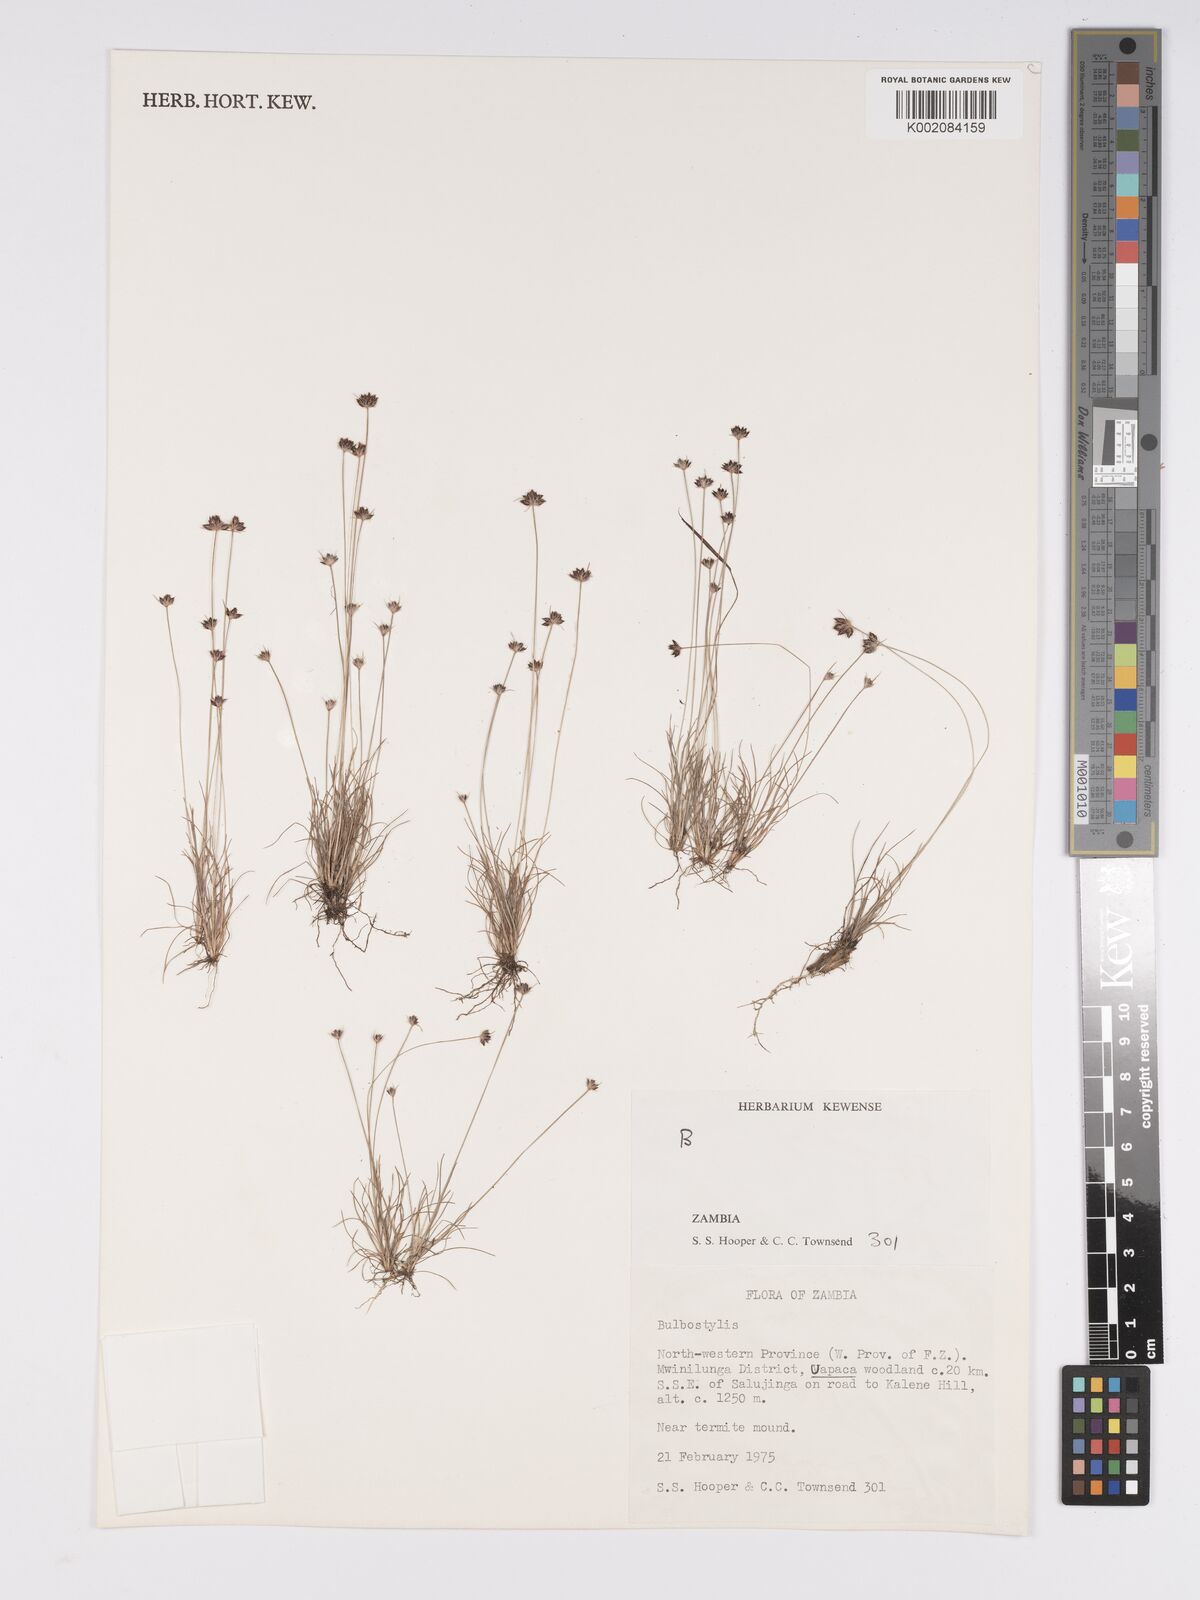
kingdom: Plantae
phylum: Tracheophyta
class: Liliopsida
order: Poales
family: Cyperaceae
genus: Bulbostylis
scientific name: Bulbostylis
